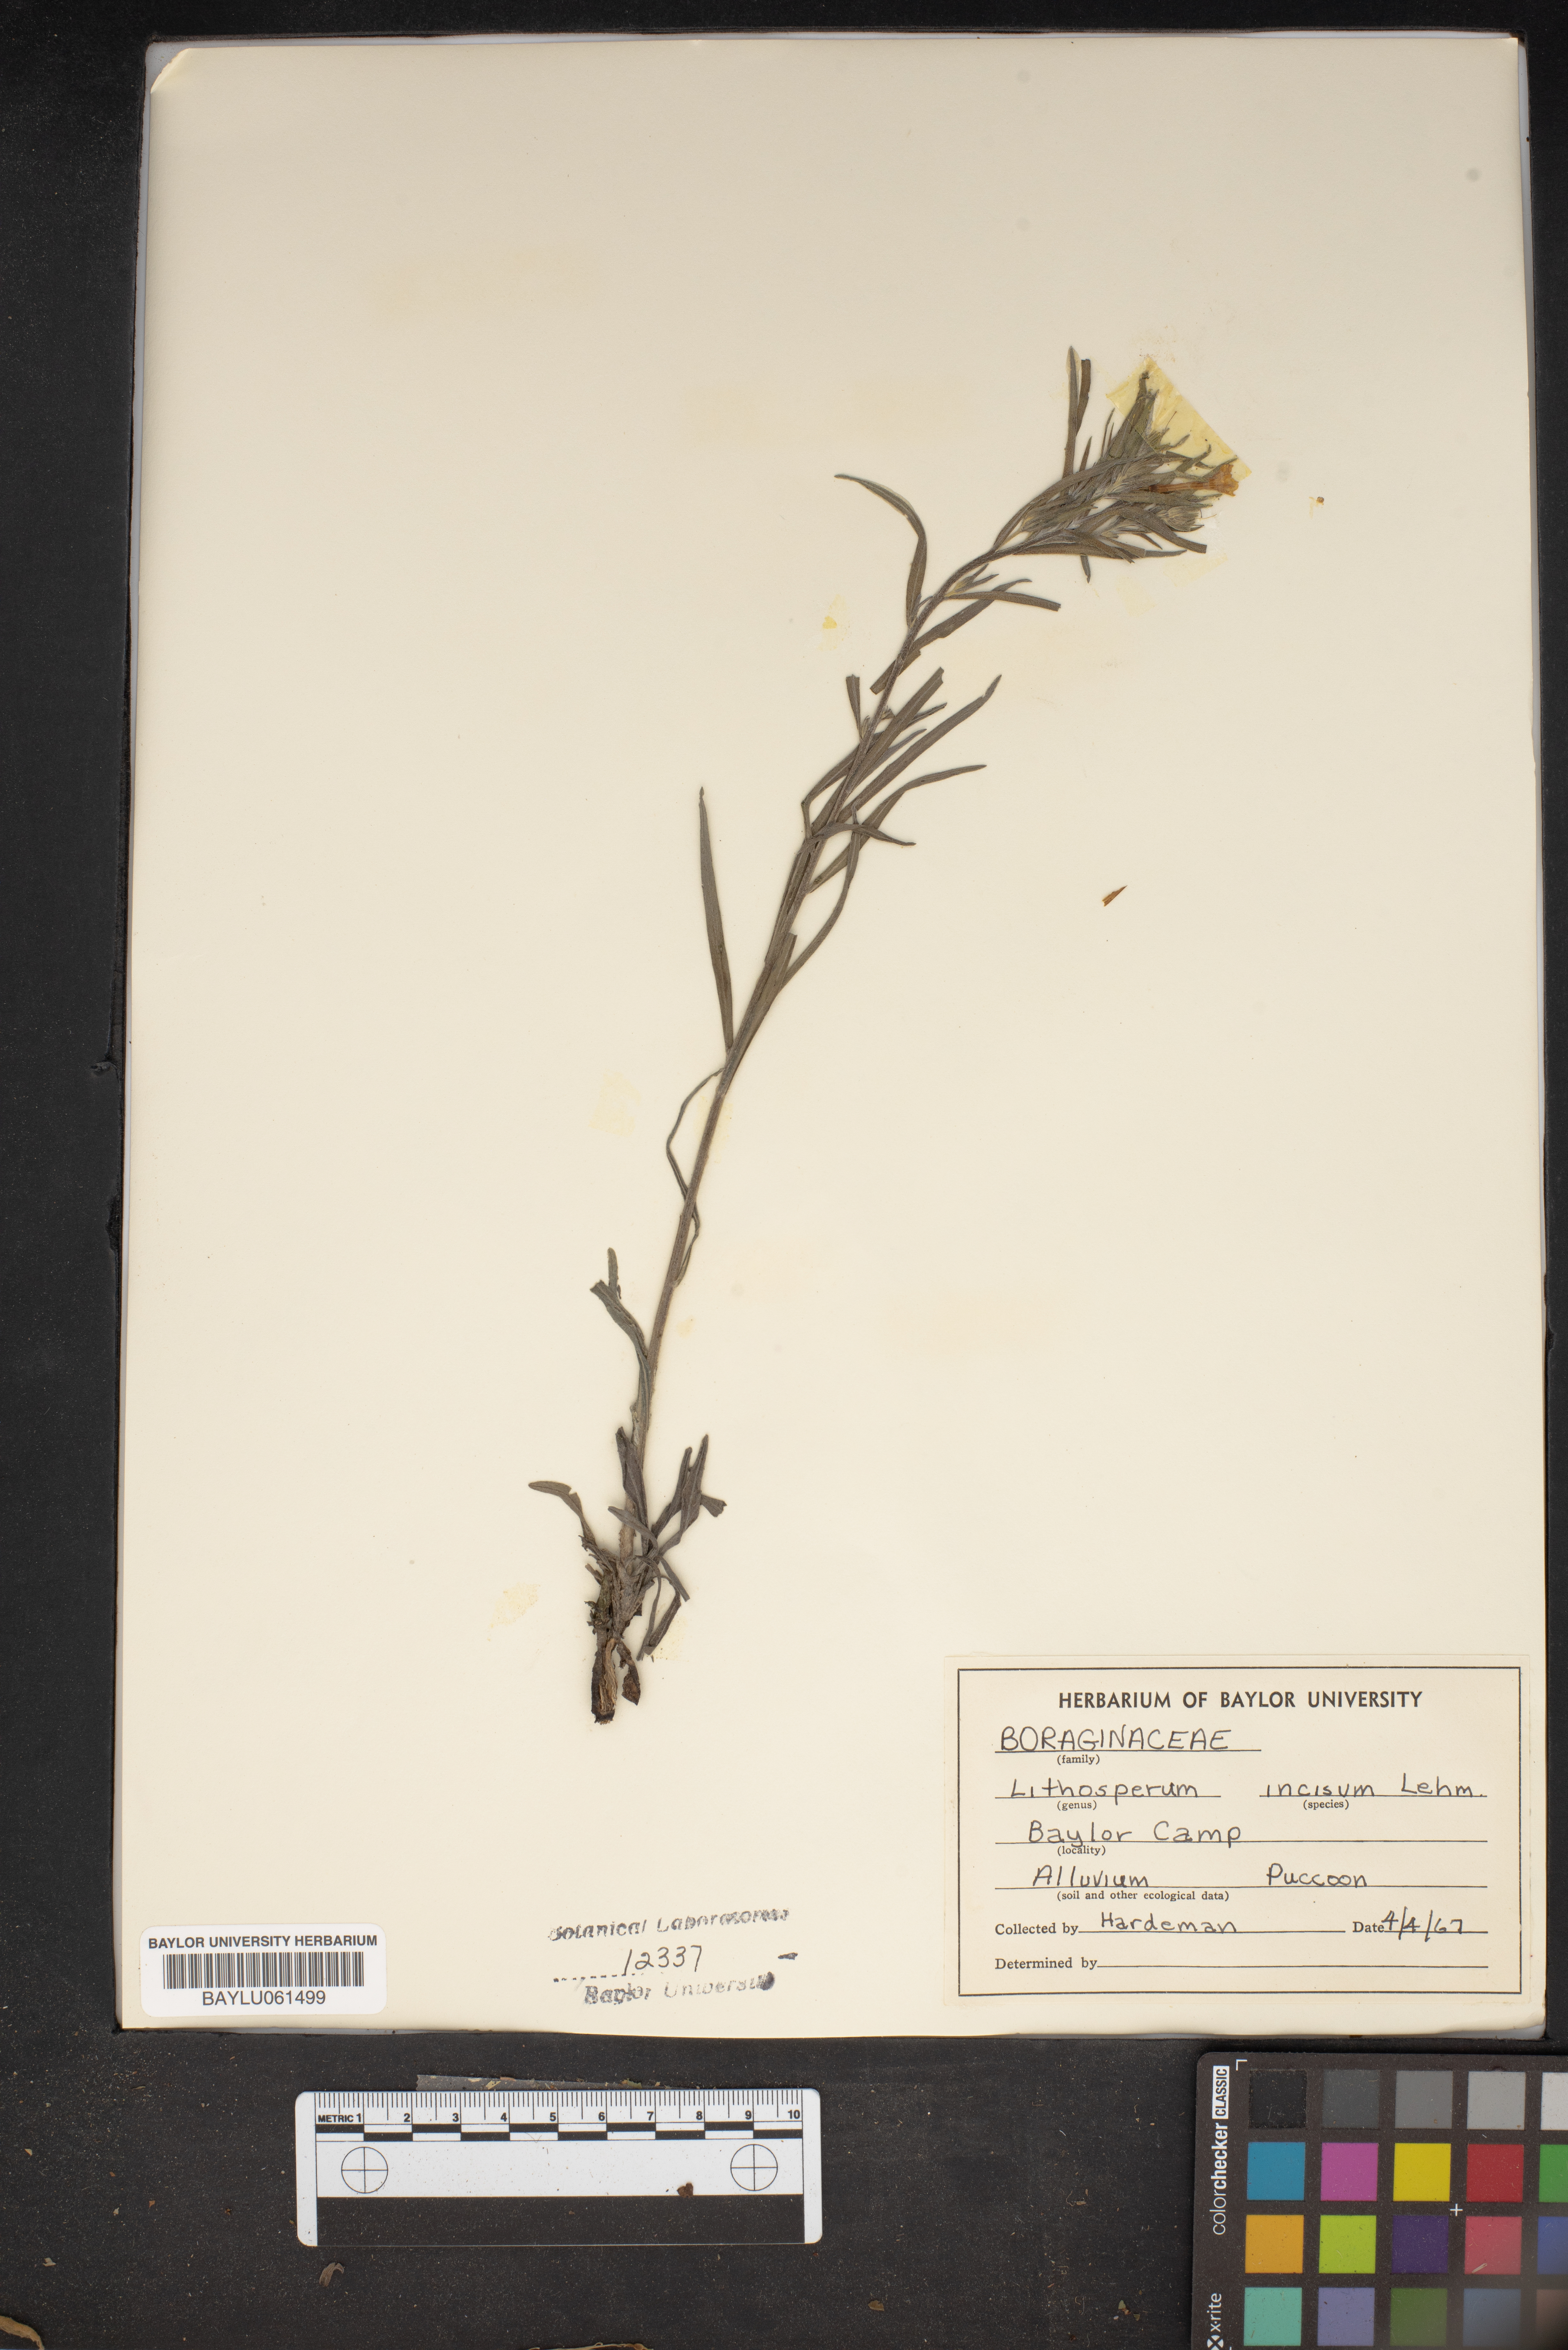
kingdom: Plantae
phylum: Tracheophyta
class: Magnoliopsida
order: Boraginales
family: Boraginaceae
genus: Lithospermum
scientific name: Lithospermum incisum
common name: Fringed gromwell
